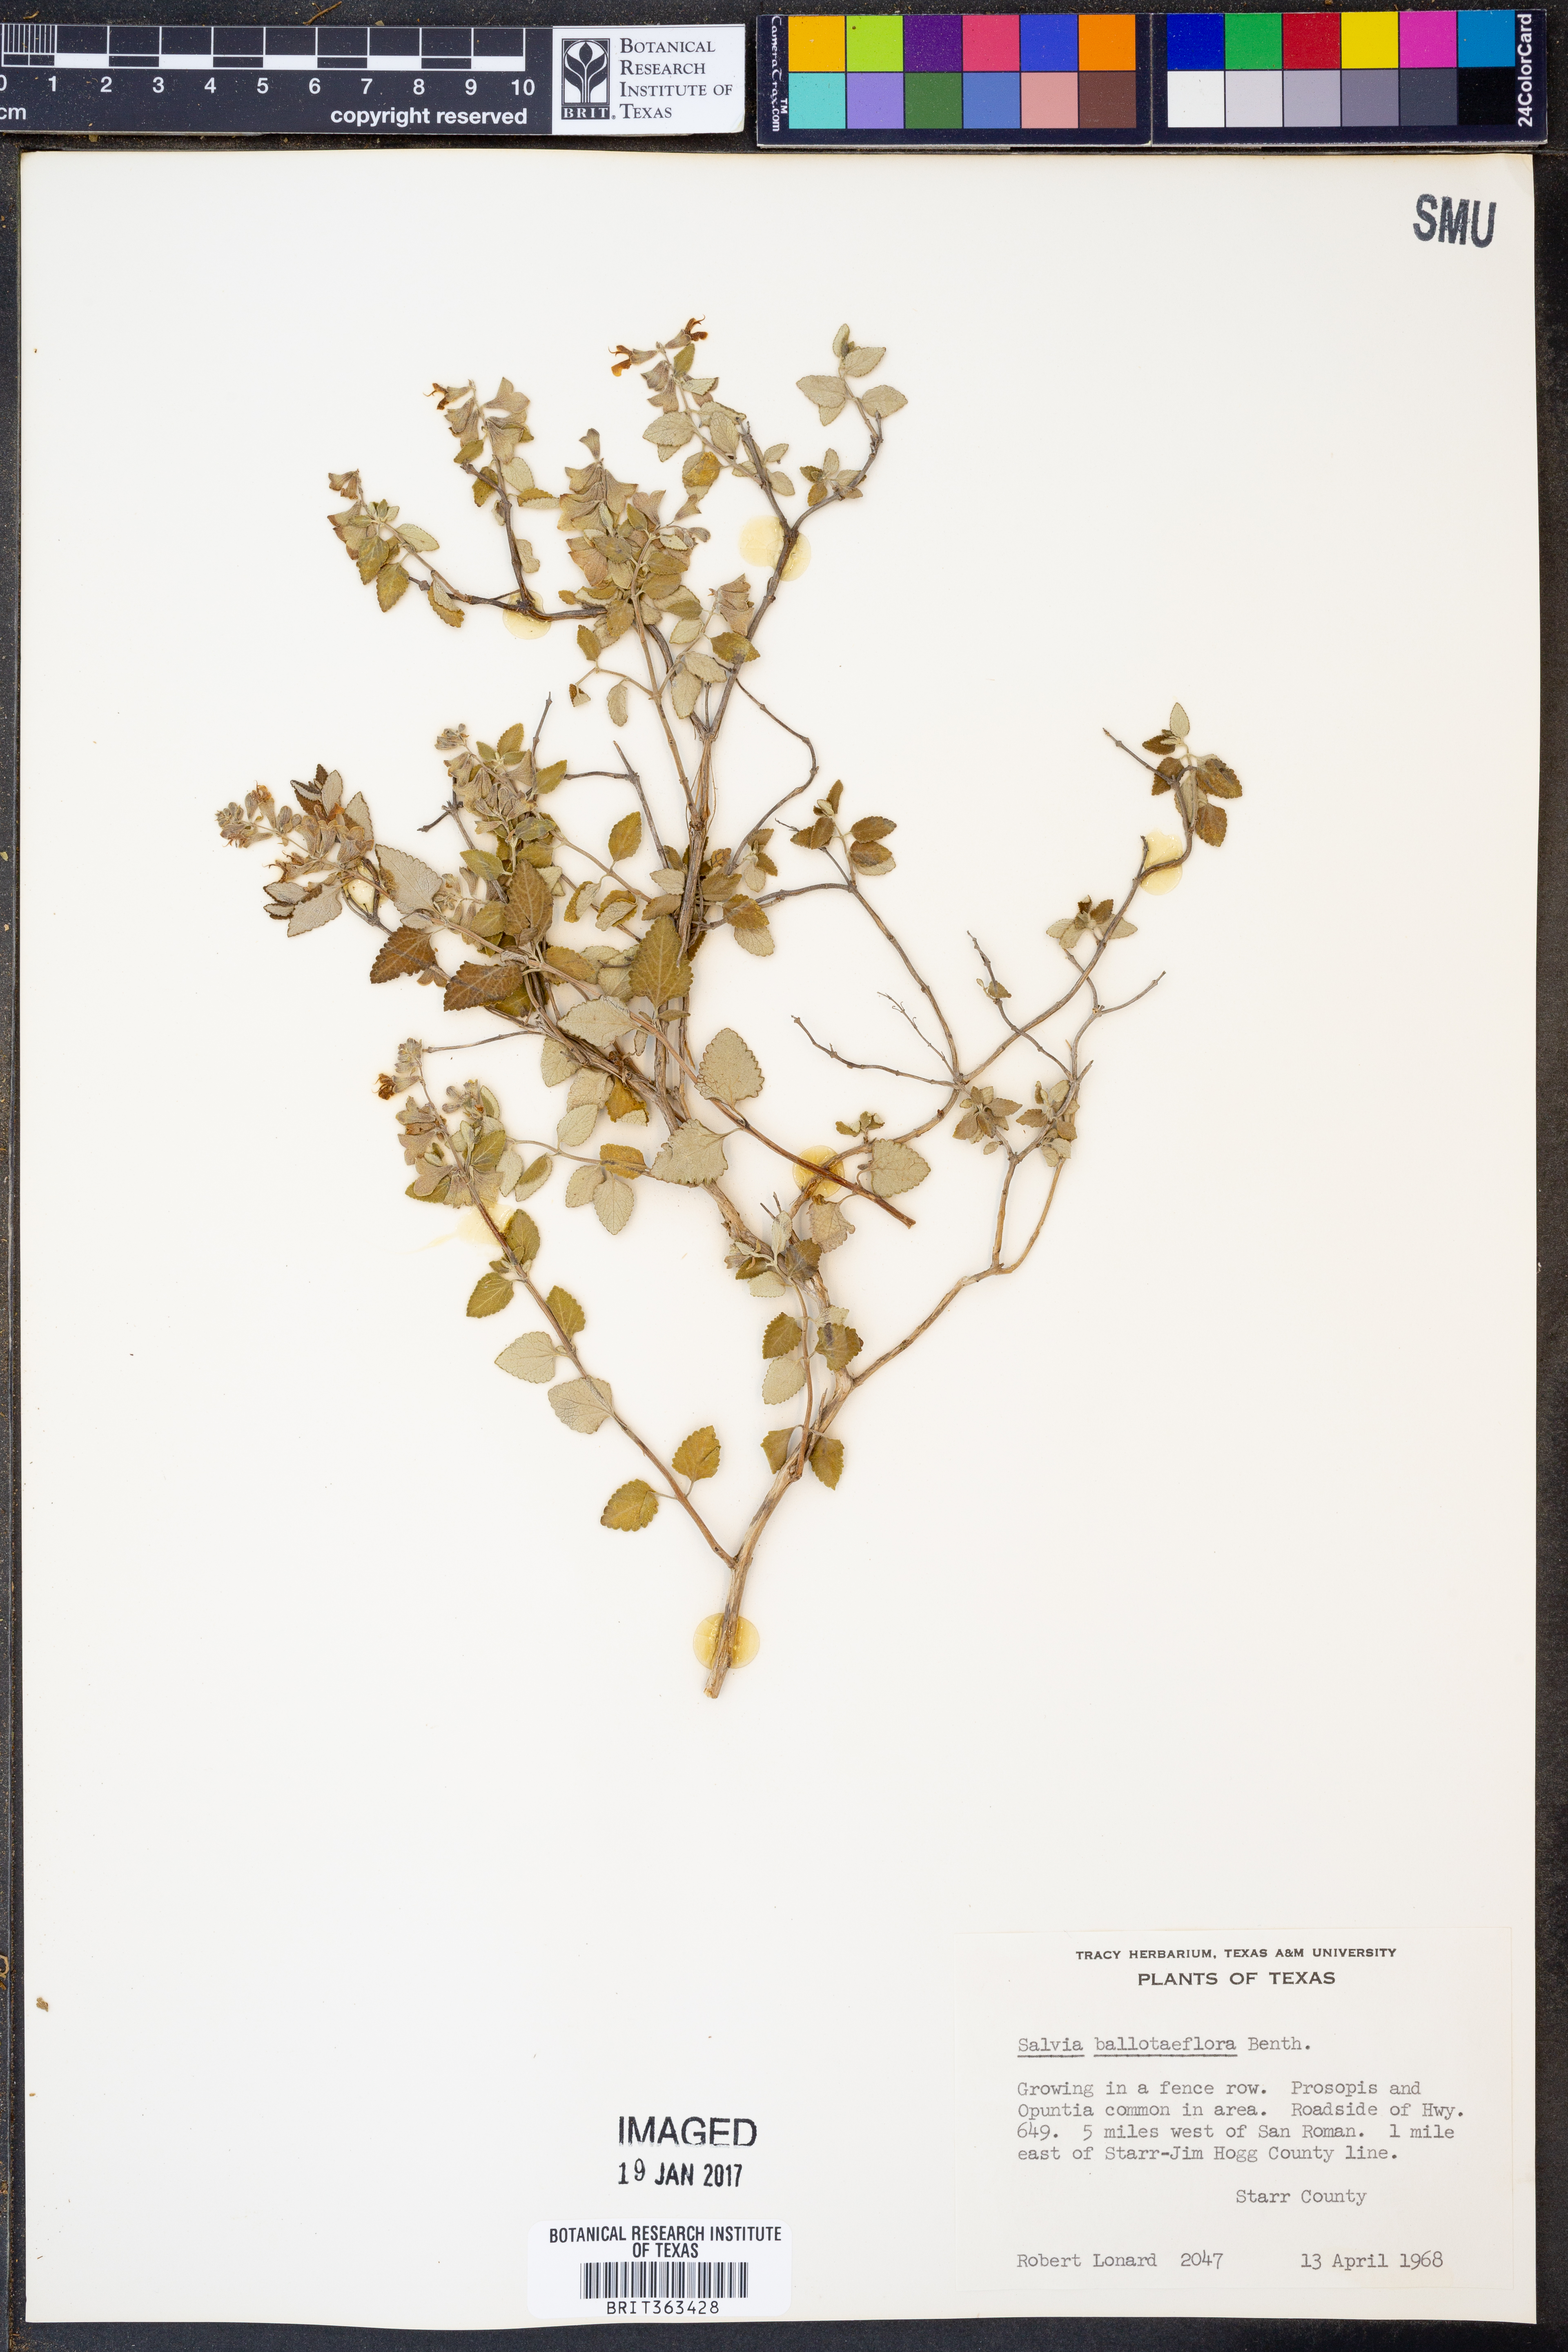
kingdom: Plantae
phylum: Tracheophyta
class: Magnoliopsida
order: Lamiales
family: Lamiaceae
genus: Salvia
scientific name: Salvia ballotiflora
